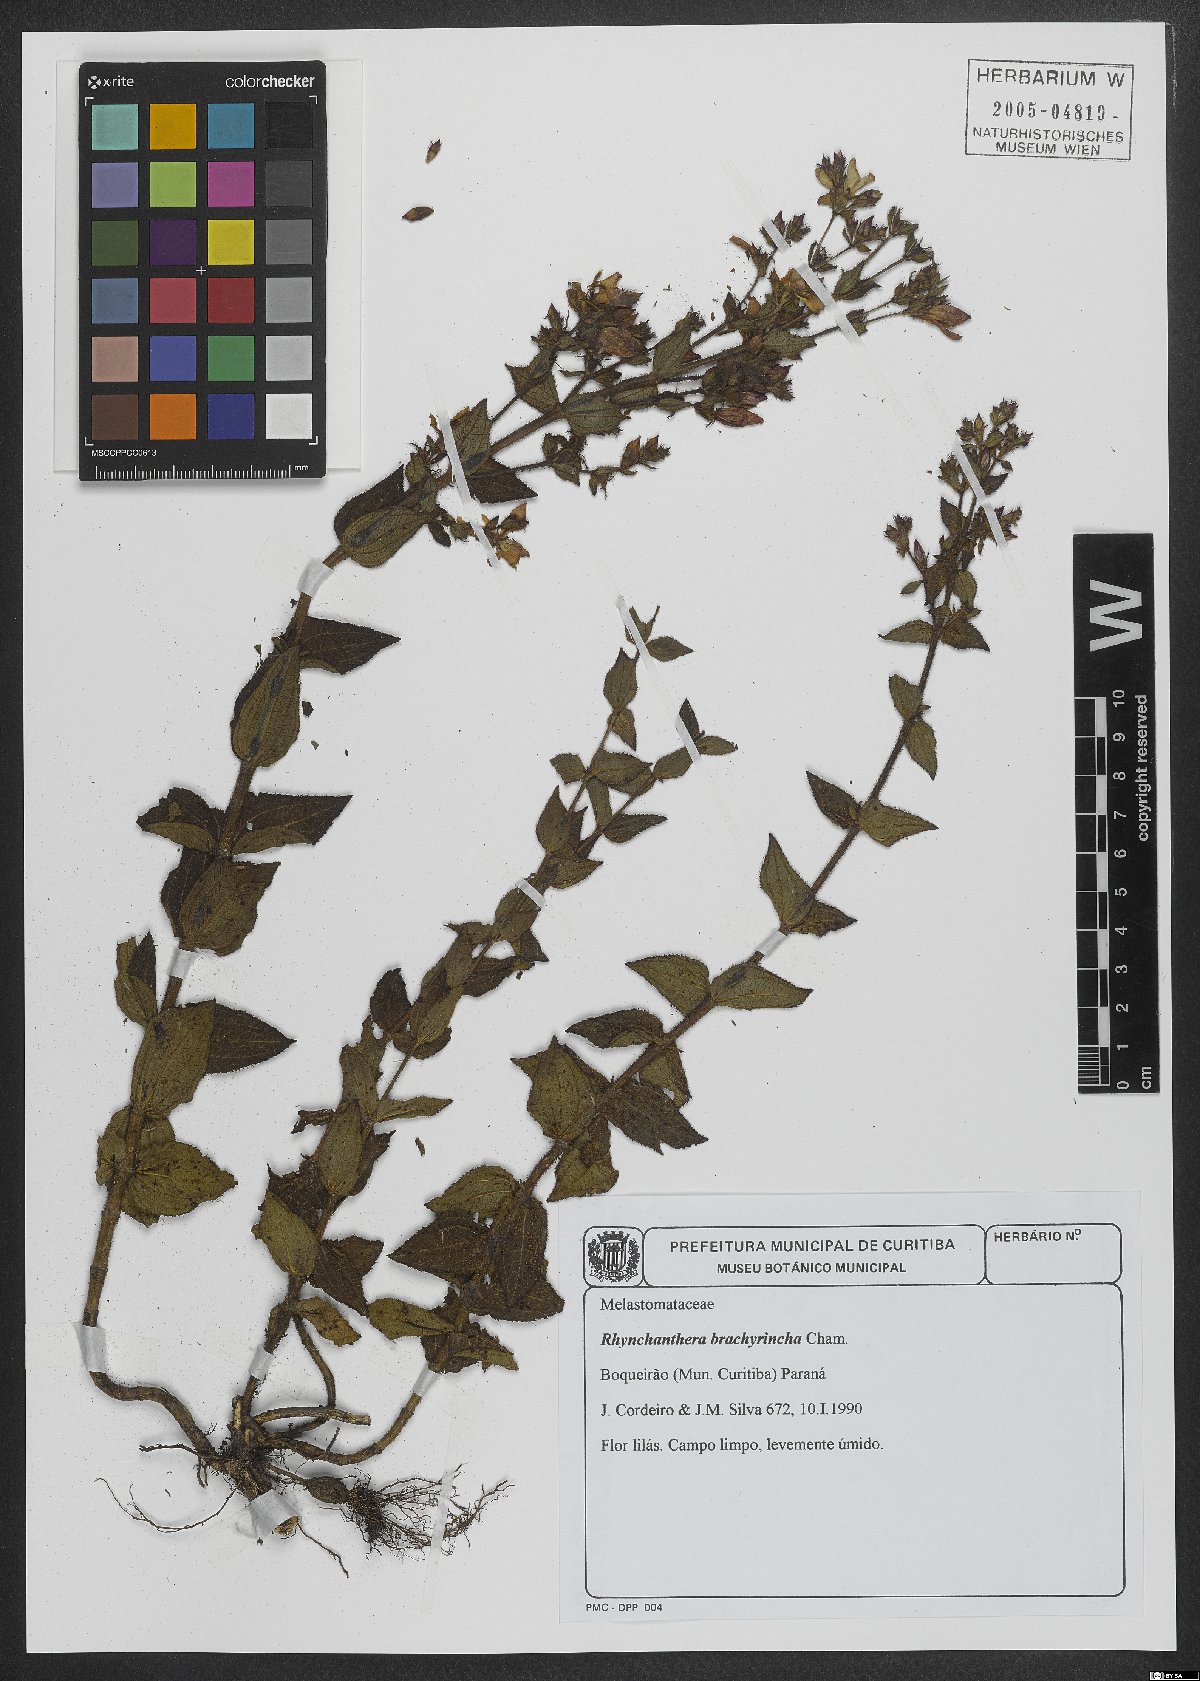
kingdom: Plantae
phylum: Tracheophyta
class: Magnoliopsida
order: Myrtales
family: Melastomataceae
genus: Rhynchanthera
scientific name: Rhynchanthera brachyrhyncha
